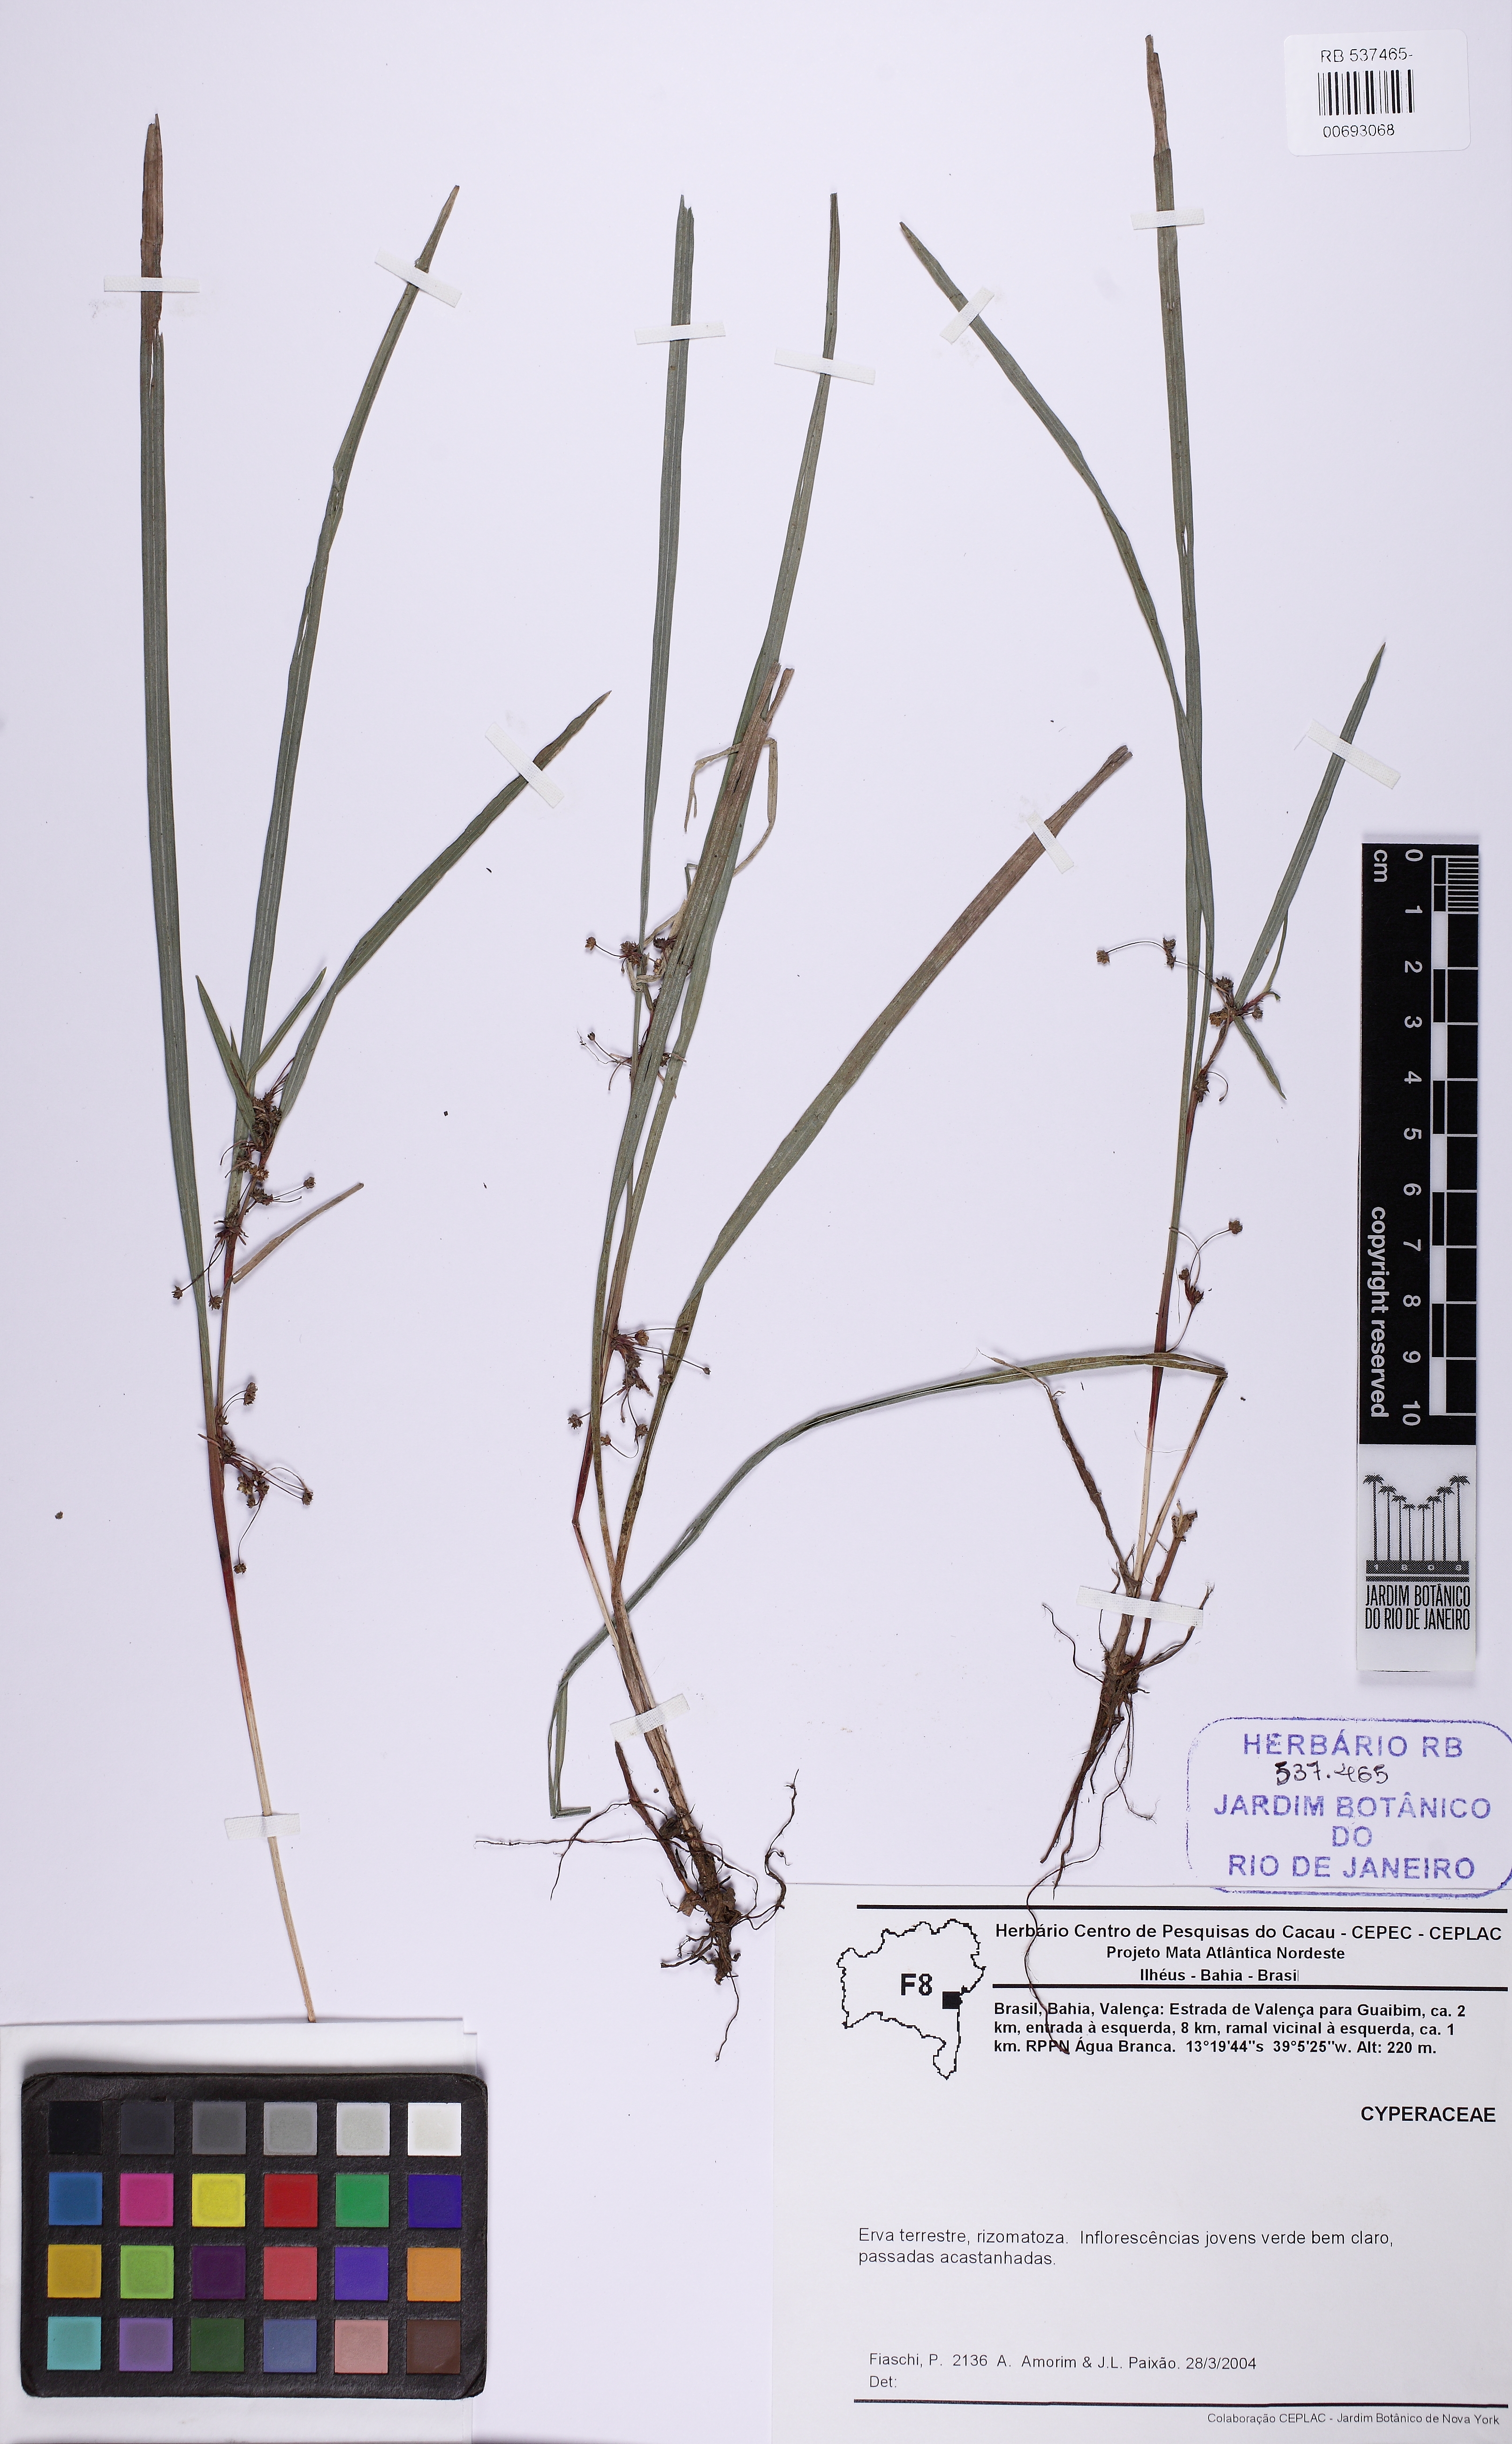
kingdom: Plantae
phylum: Tracheophyta
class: Liliopsida
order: Poales
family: Cyperaceae
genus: Calyptrocarya
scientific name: Calyptrocarya
